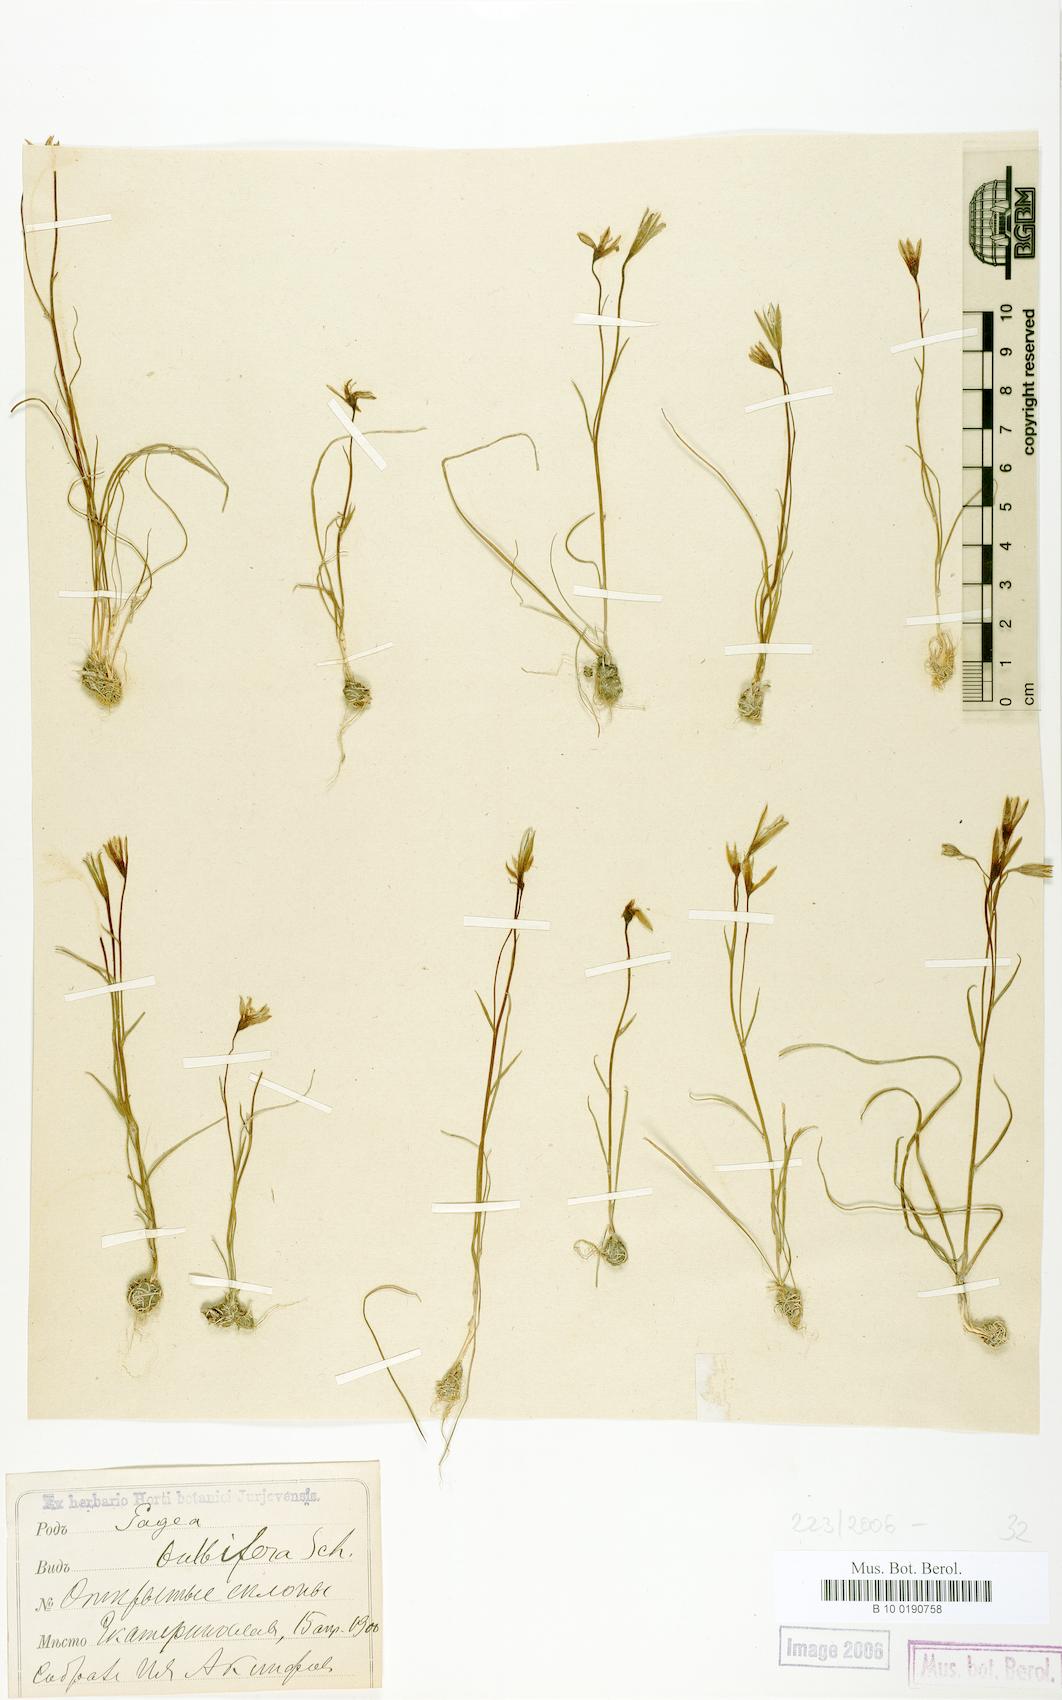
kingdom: Plantae
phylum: Tracheophyta
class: Liliopsida
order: Liliales
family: Liliaceae
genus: Gagea
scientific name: Gagea bulbifera
